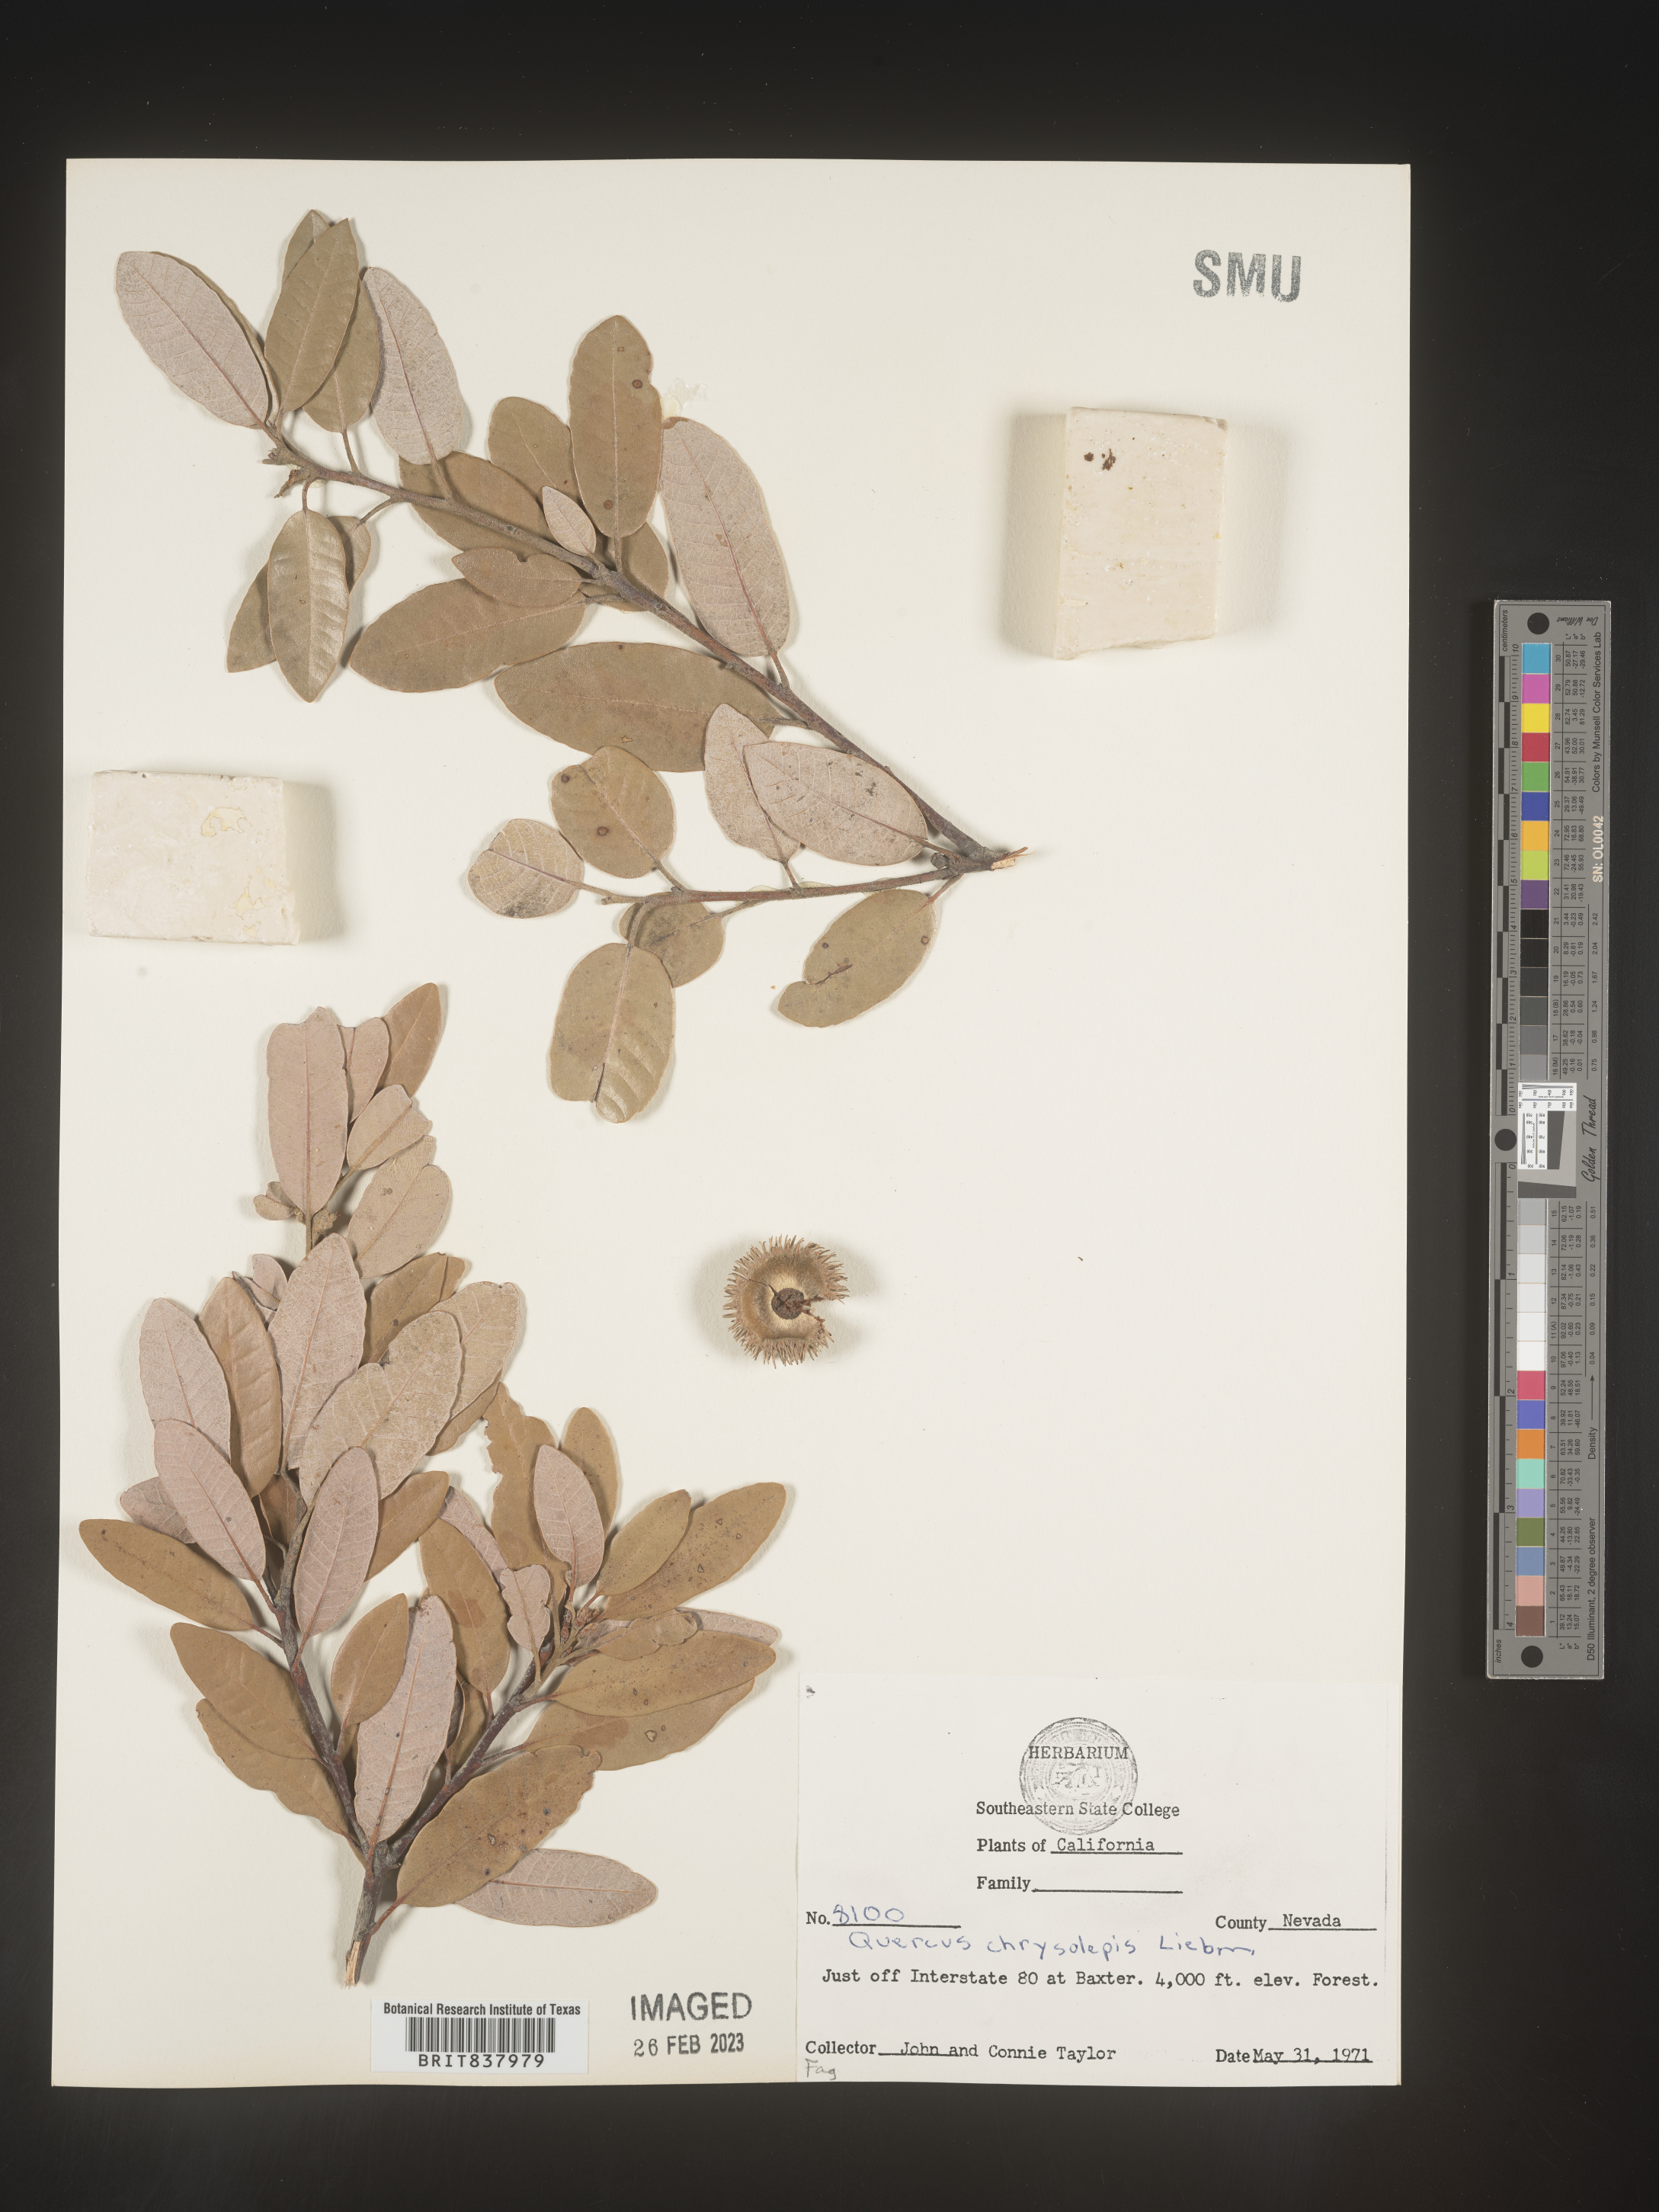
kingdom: Plantae
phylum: Tracheophyta
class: Magnoliopsida
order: Fagales
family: Fagaceae
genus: Quercus
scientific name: Quercus chrysolepis
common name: Canyon live oak
